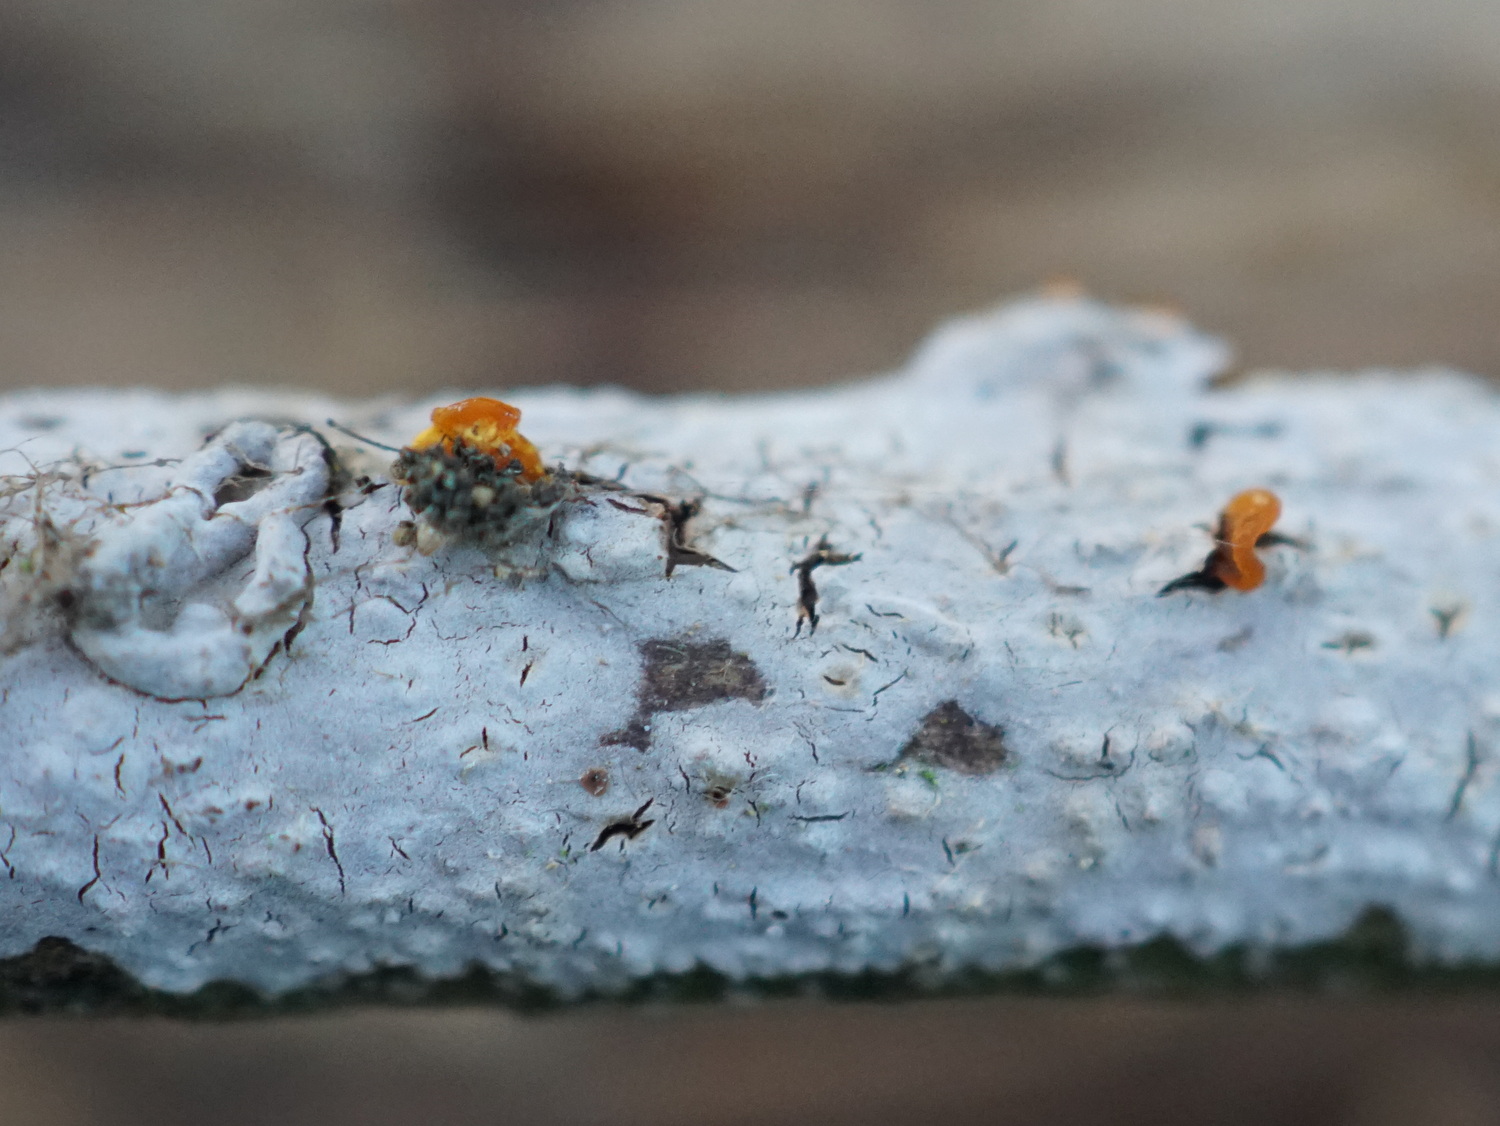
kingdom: Fungi
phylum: Basidiomycota
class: Agaricomycetes
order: Russulales
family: Peniophoraceae
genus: Peniophora
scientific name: Peniophora
